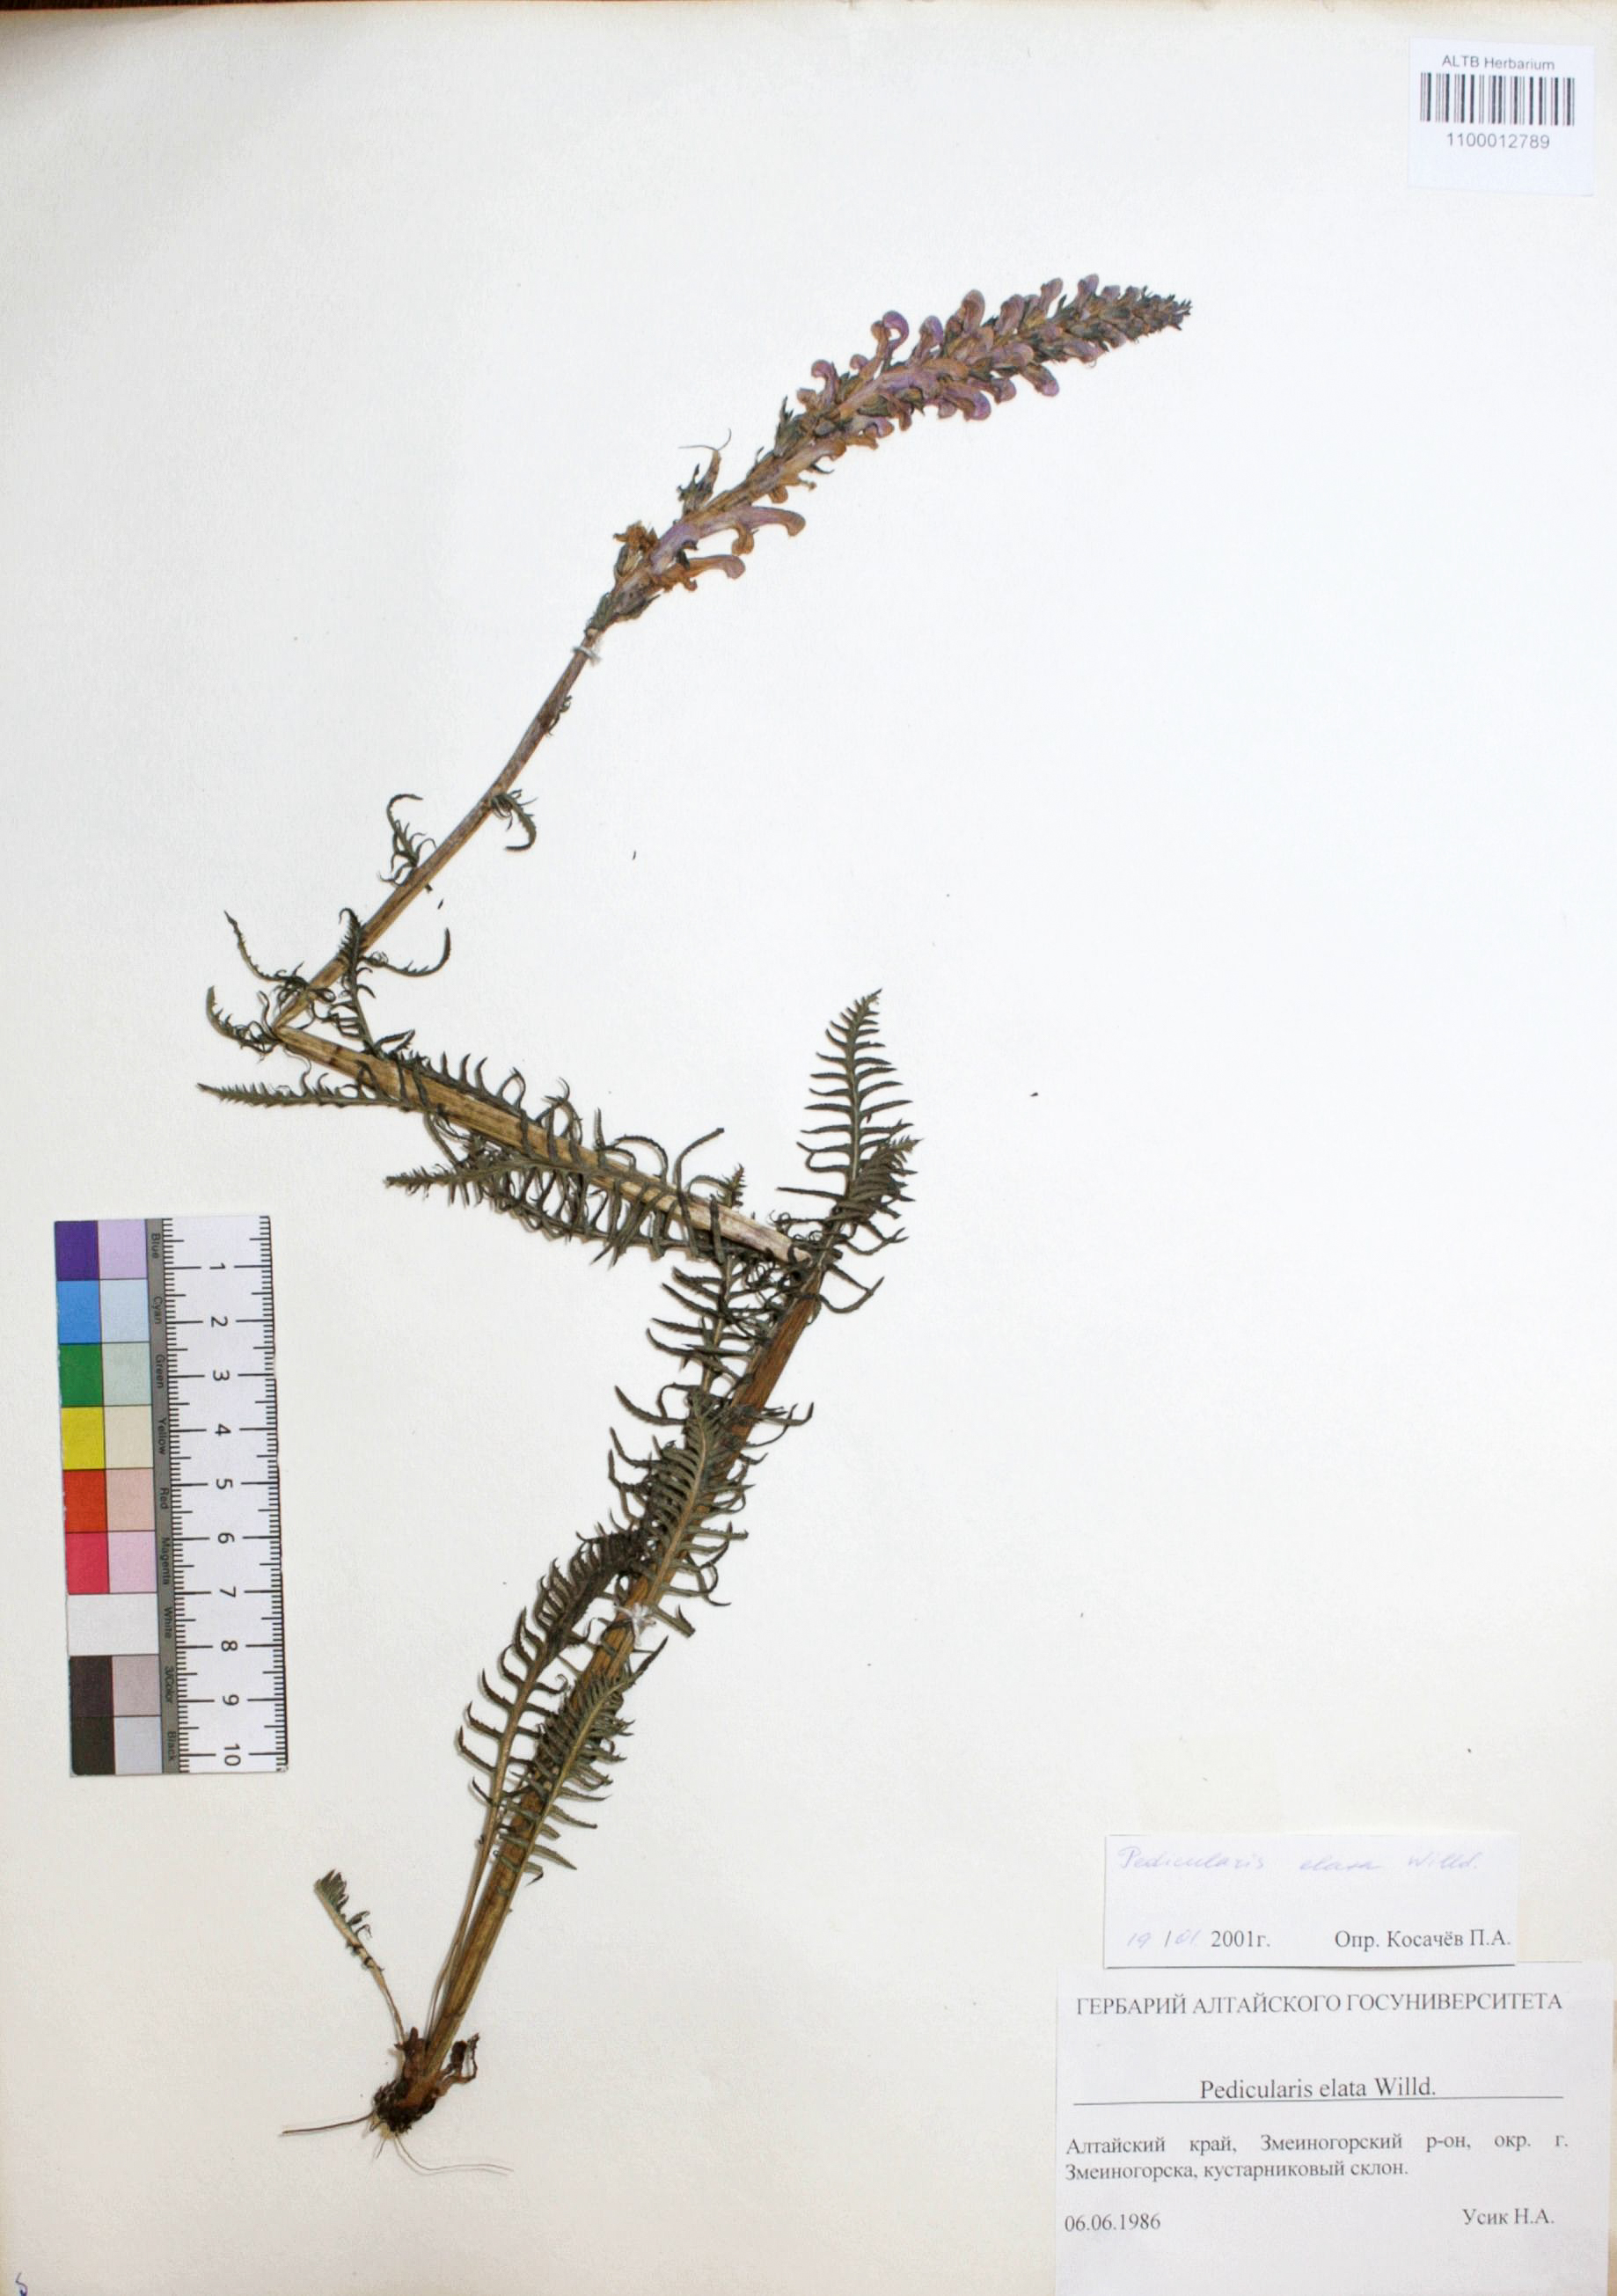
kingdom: Plantae
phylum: Tracheophyta
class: Magnoliopsida
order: Lamiales
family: Orobanchaceae
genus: Pedicularis
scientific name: Pedicularis elata
